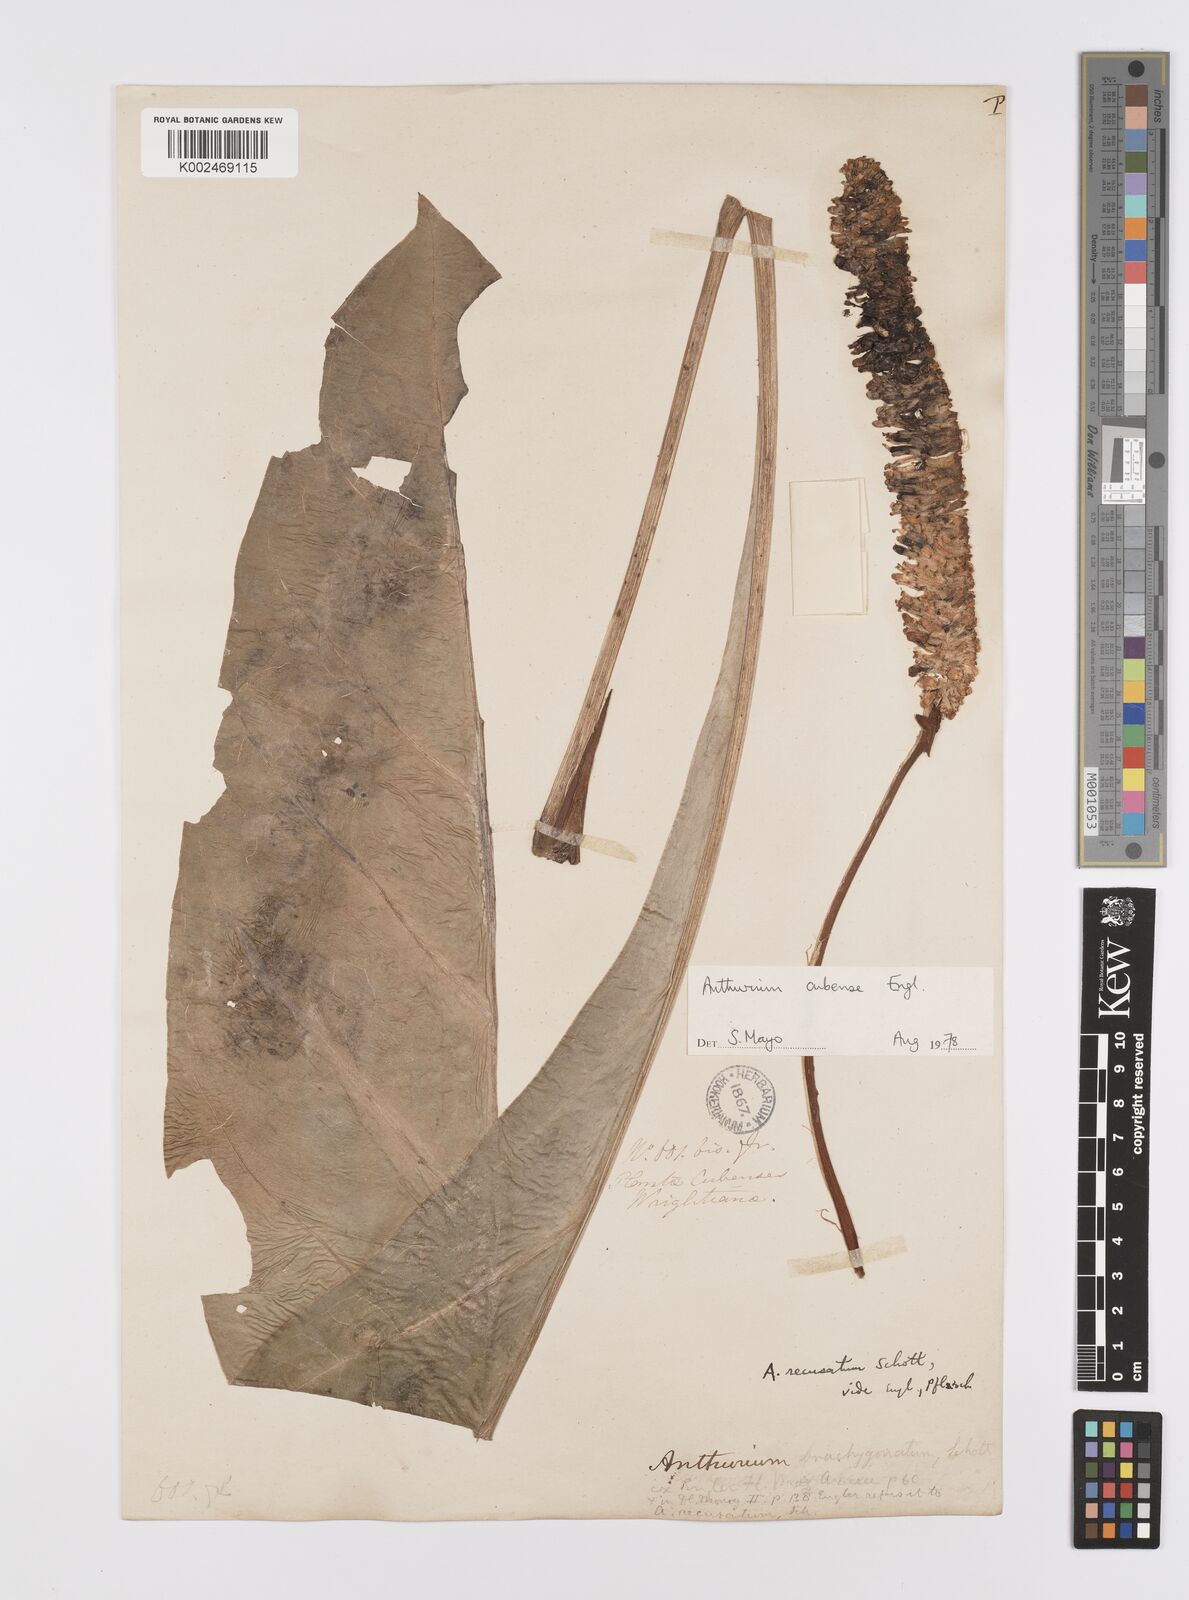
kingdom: Plantae
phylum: Tracheophyta
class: Liliopsida
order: Alismatales
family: Araceae
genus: Anthurium
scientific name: Anthurium cubense
